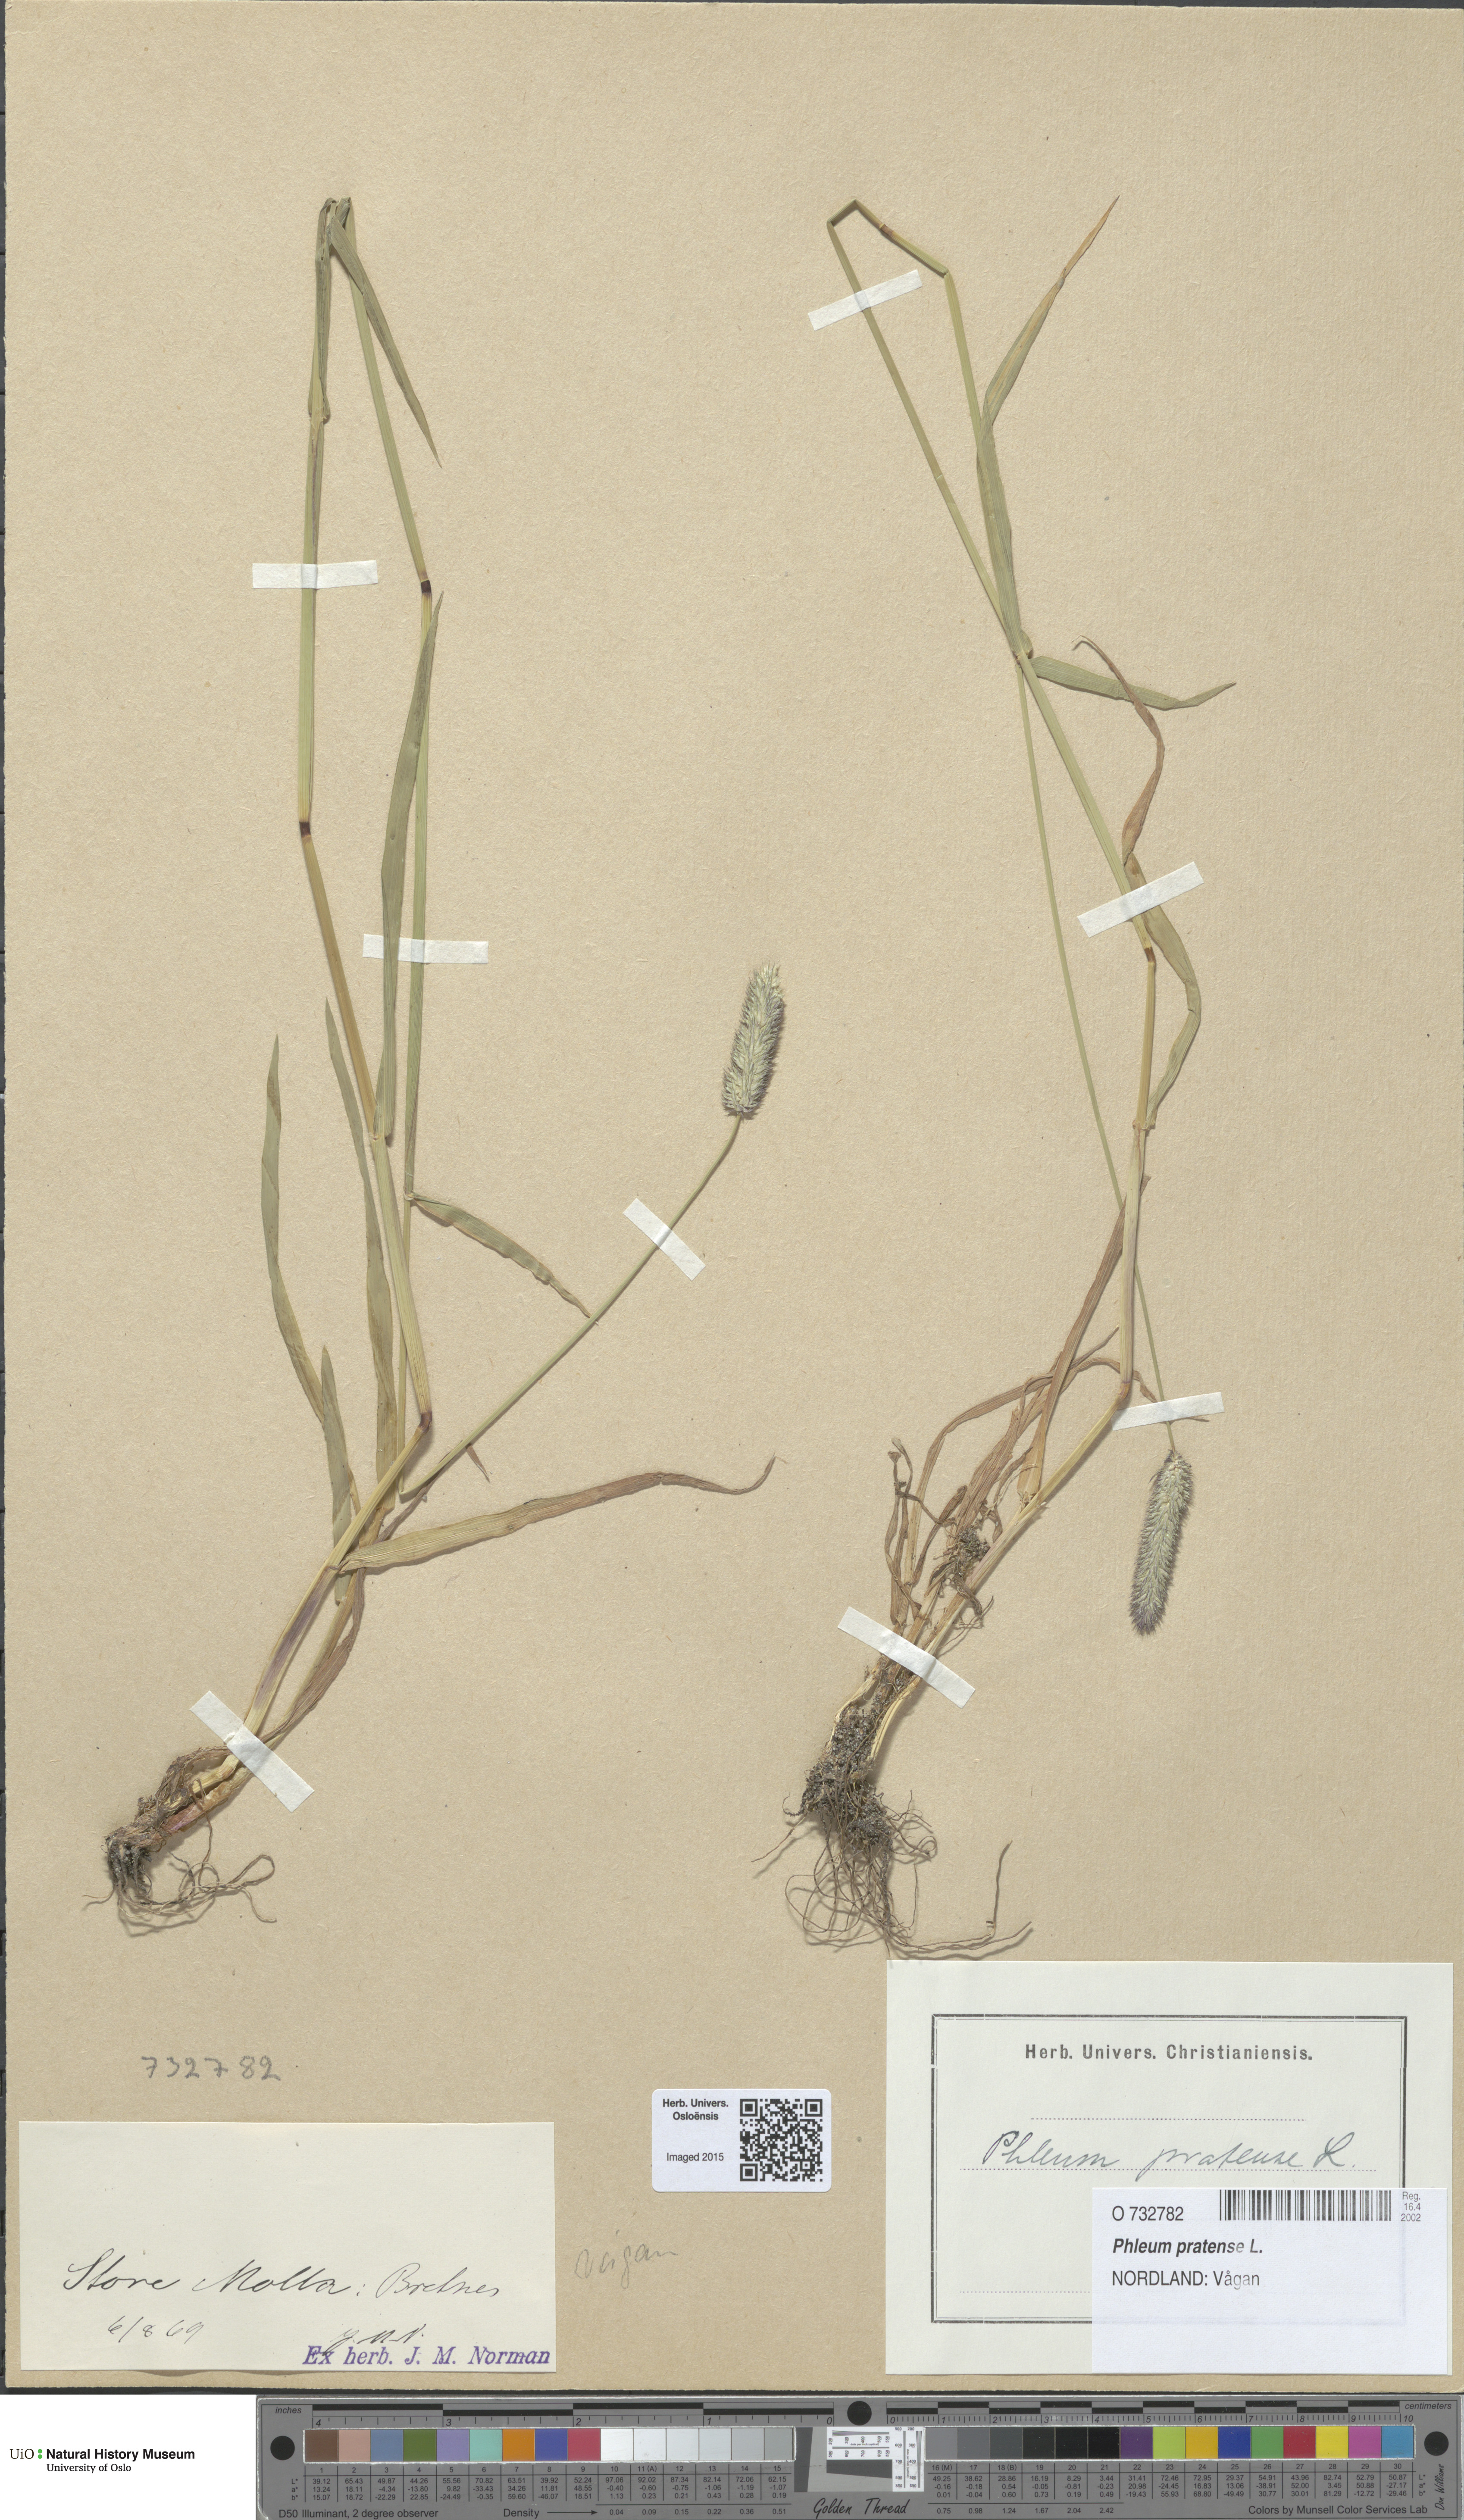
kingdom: Plantae
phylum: Tracheophyta
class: Liliopsida
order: Poales
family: Poaceae
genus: Phleum
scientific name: Phleum pratense
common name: Timothy grass
